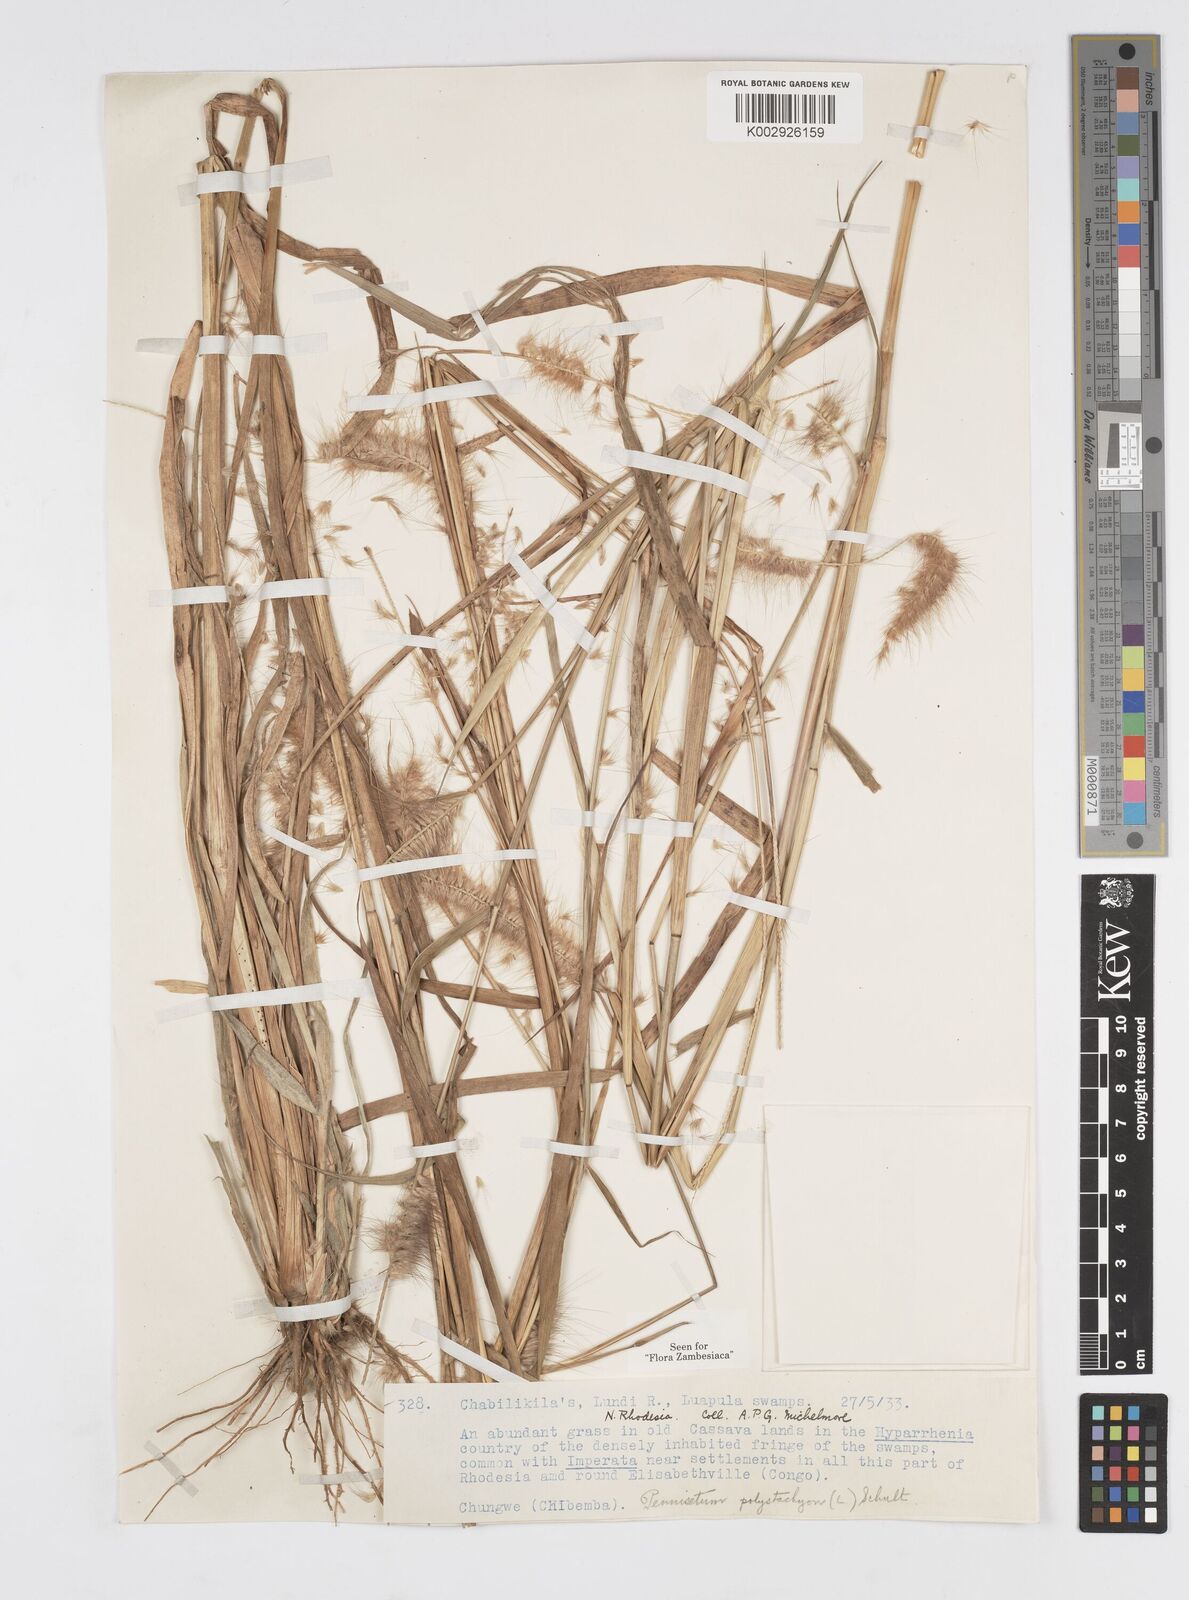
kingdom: Plantae
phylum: Tracheophyta
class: Liliopsida
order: Poales
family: Poaceae
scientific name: Poaceae
